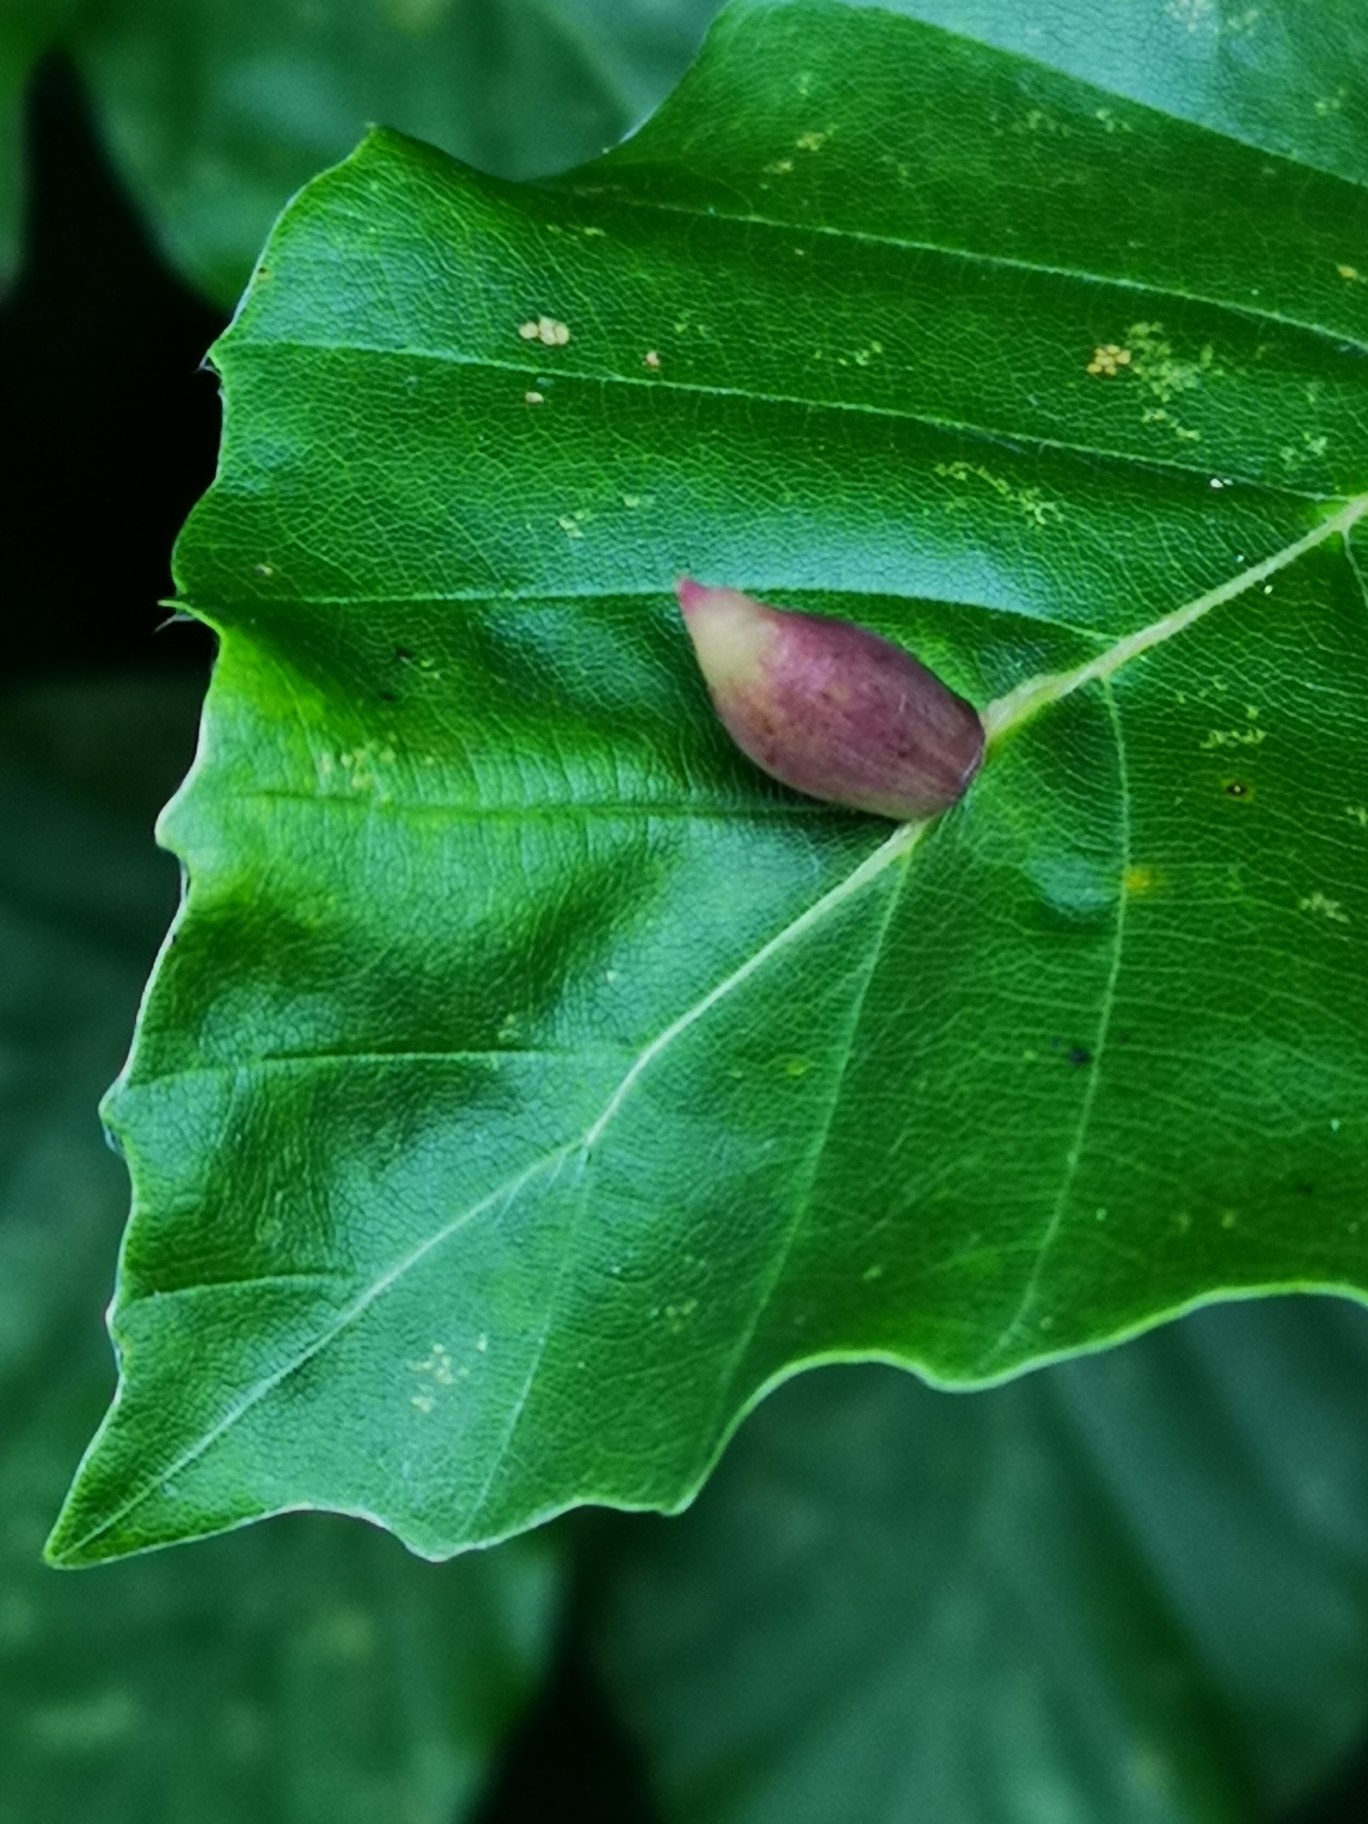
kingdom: Animalia
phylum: Arthropoda
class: Insecta
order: Diptera
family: Cecidomyiidae
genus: Mikiola
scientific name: Mikiola fagi
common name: Bøgegalmyg
